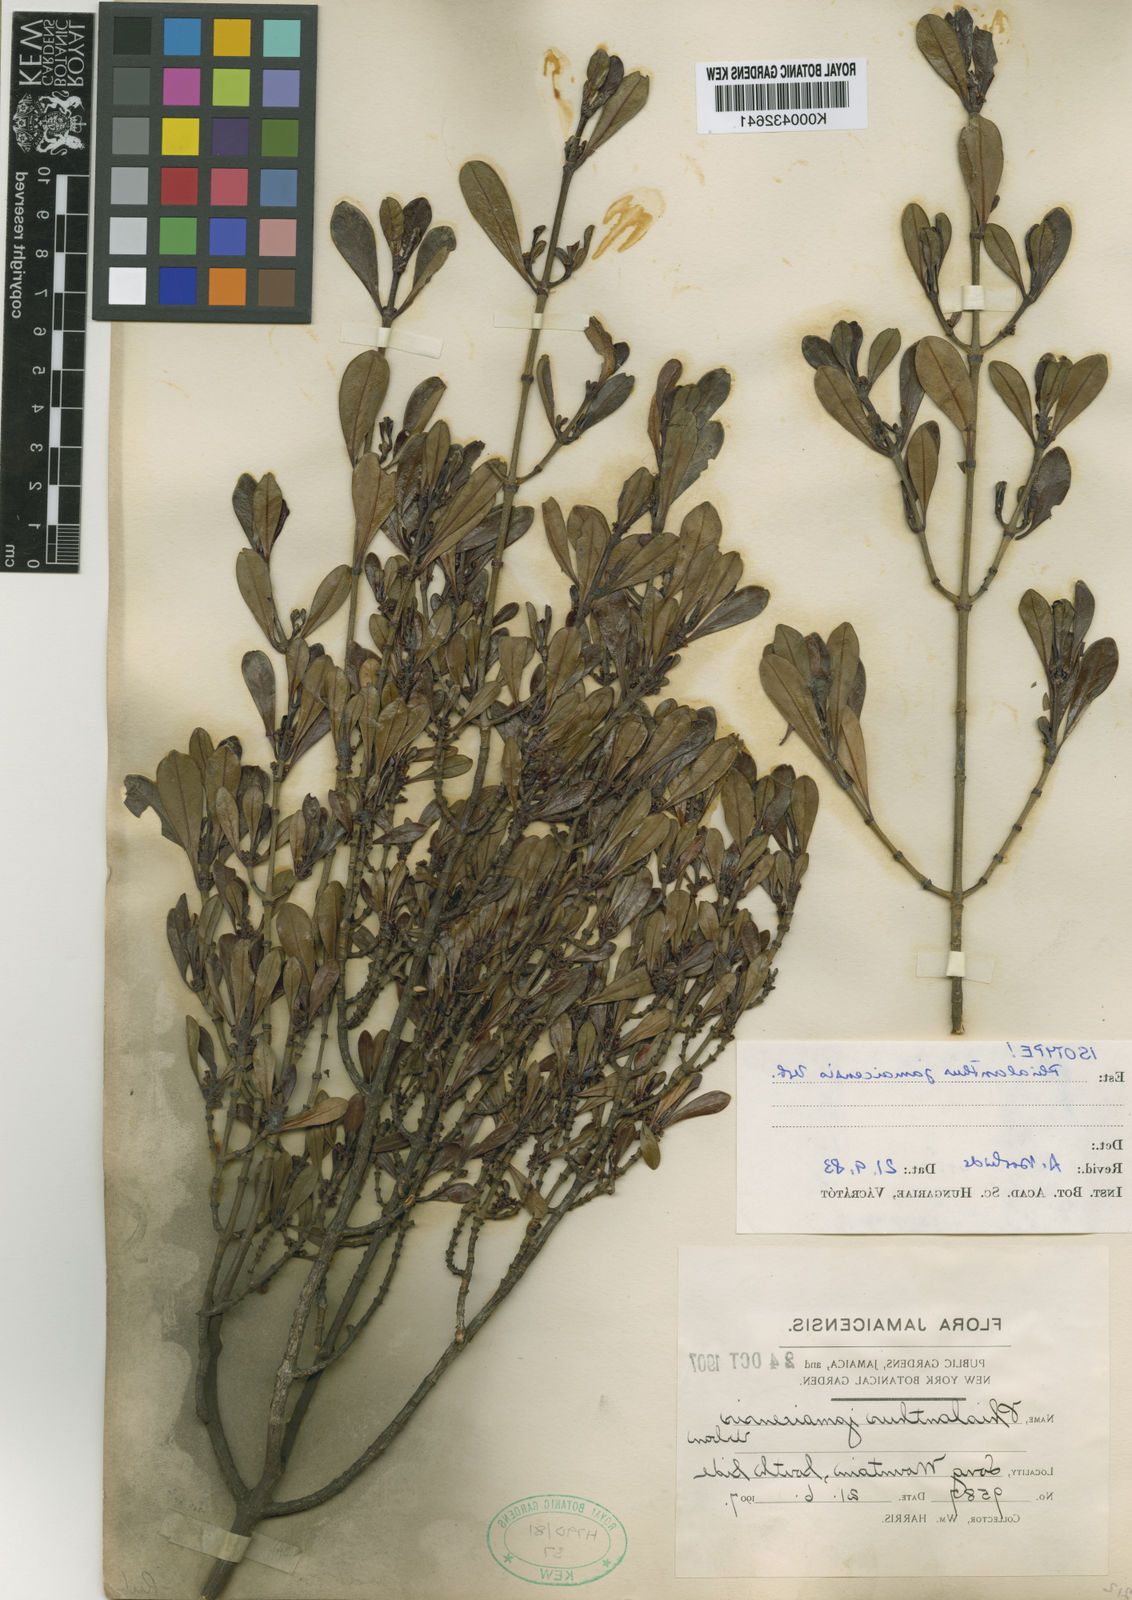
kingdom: Plantae
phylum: Tracheophyta
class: Magnoliopsida
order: Gentianales
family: Rubiaceae
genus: Phialanthus
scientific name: Phialanthus jamaicensis
